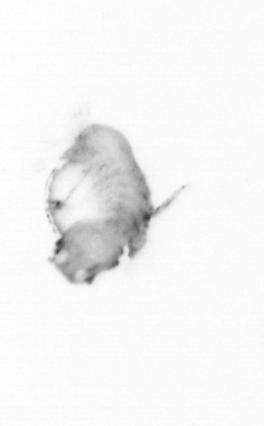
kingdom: Animalia
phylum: Annelida
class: Polychaeta
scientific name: Polychaeta
